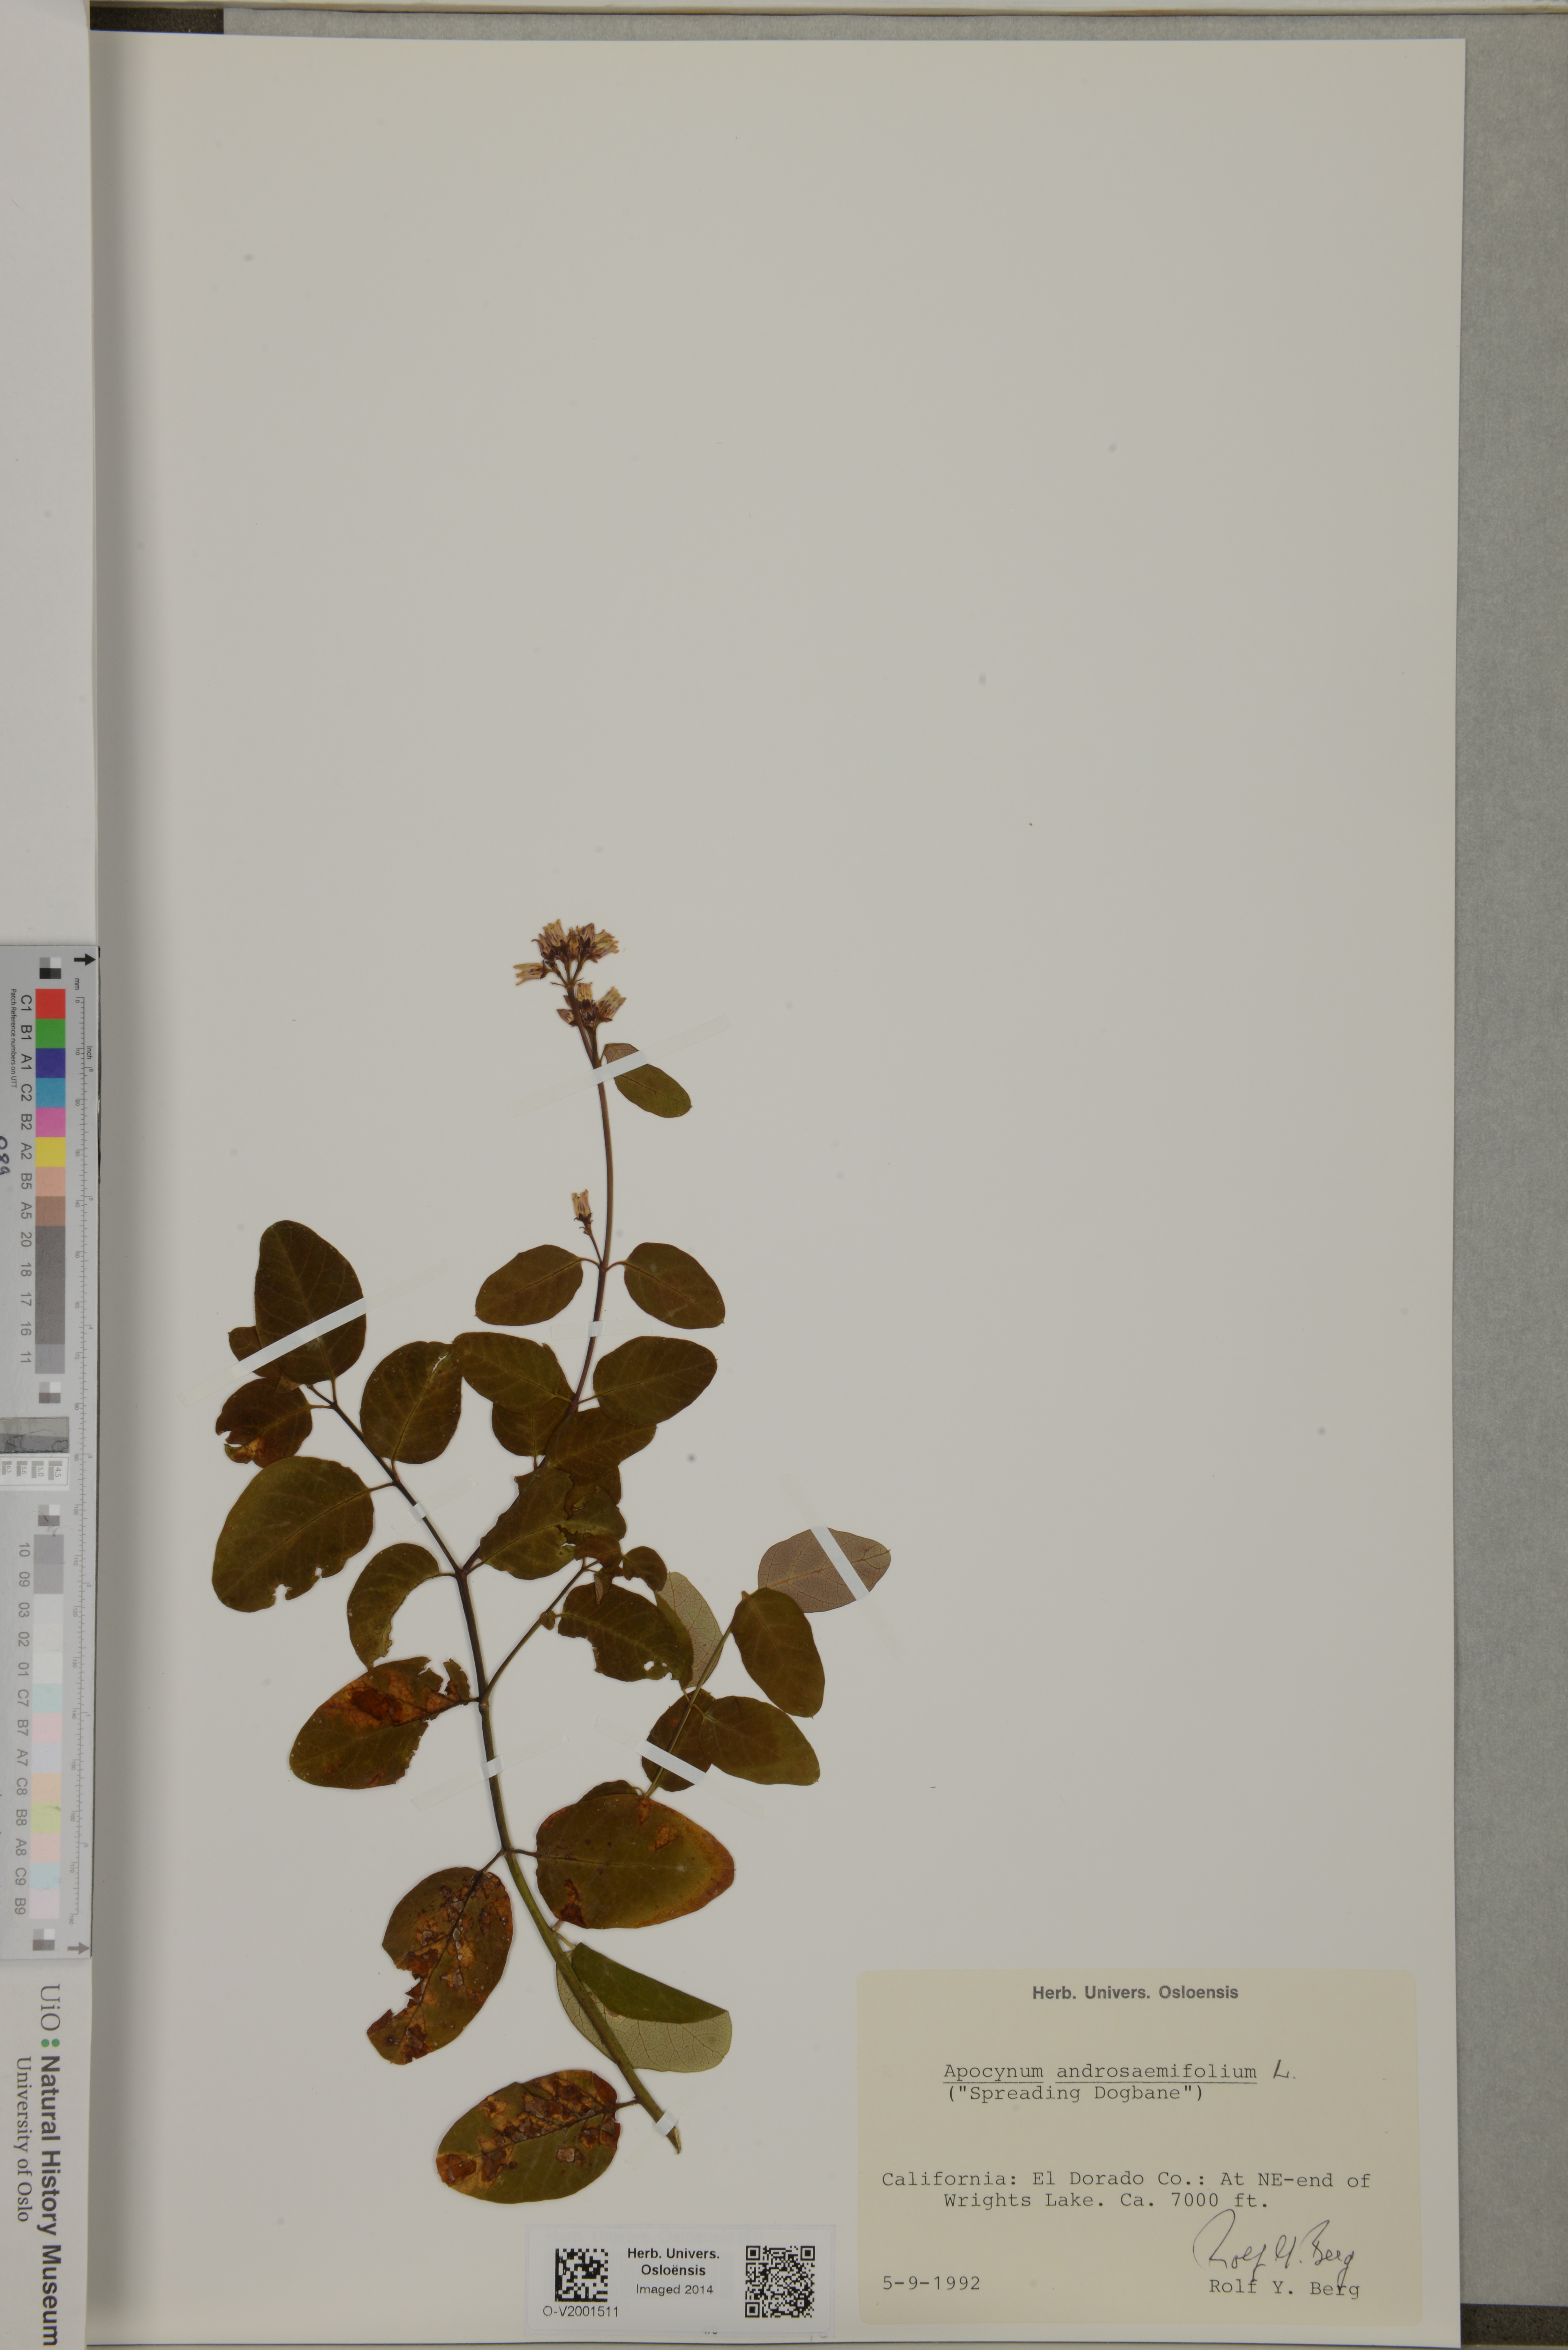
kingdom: Plantae
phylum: Tracheophyta
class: Magnoliopsida
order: Gentianales
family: Apocynaceae
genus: Apocynum
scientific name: Apocynum androsaemifolium
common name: Spreading dogbane
